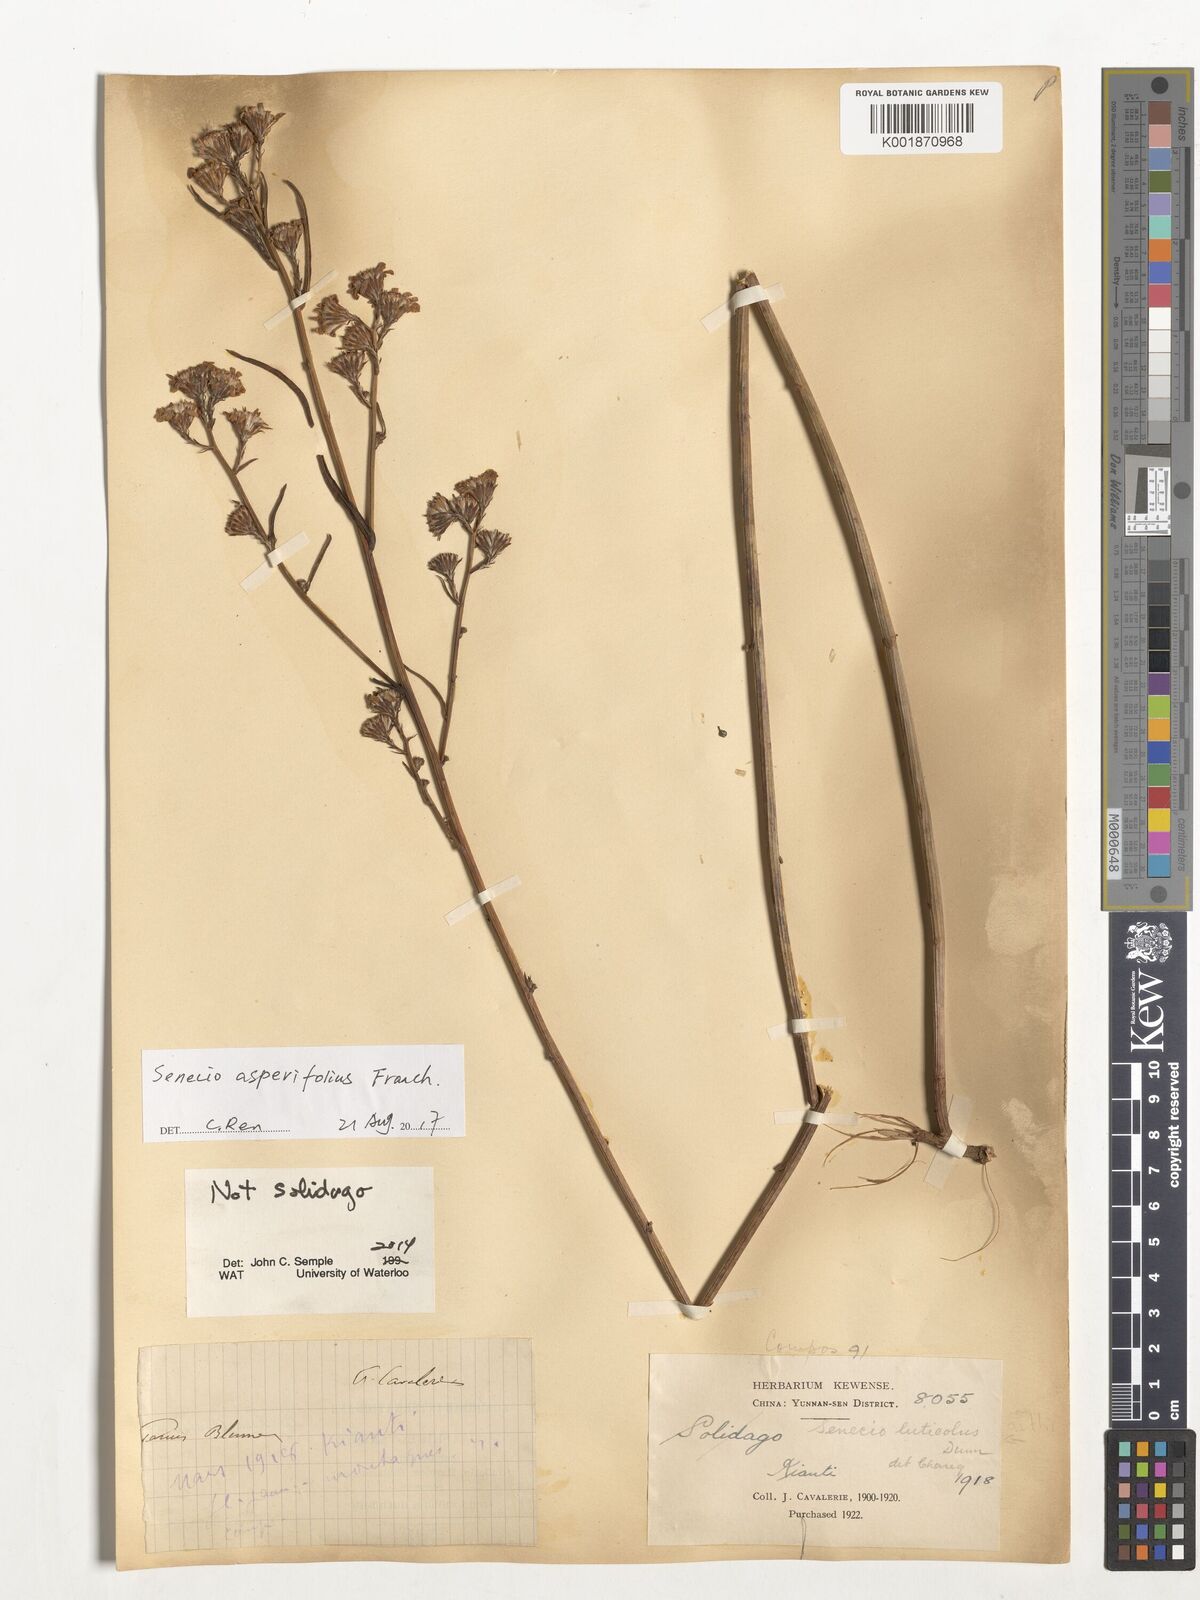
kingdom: Plantae
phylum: Tracheophyta
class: Magnoliopsida
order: Asterales
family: Asteraceae
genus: Senecio
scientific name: Senecio asperifolius
